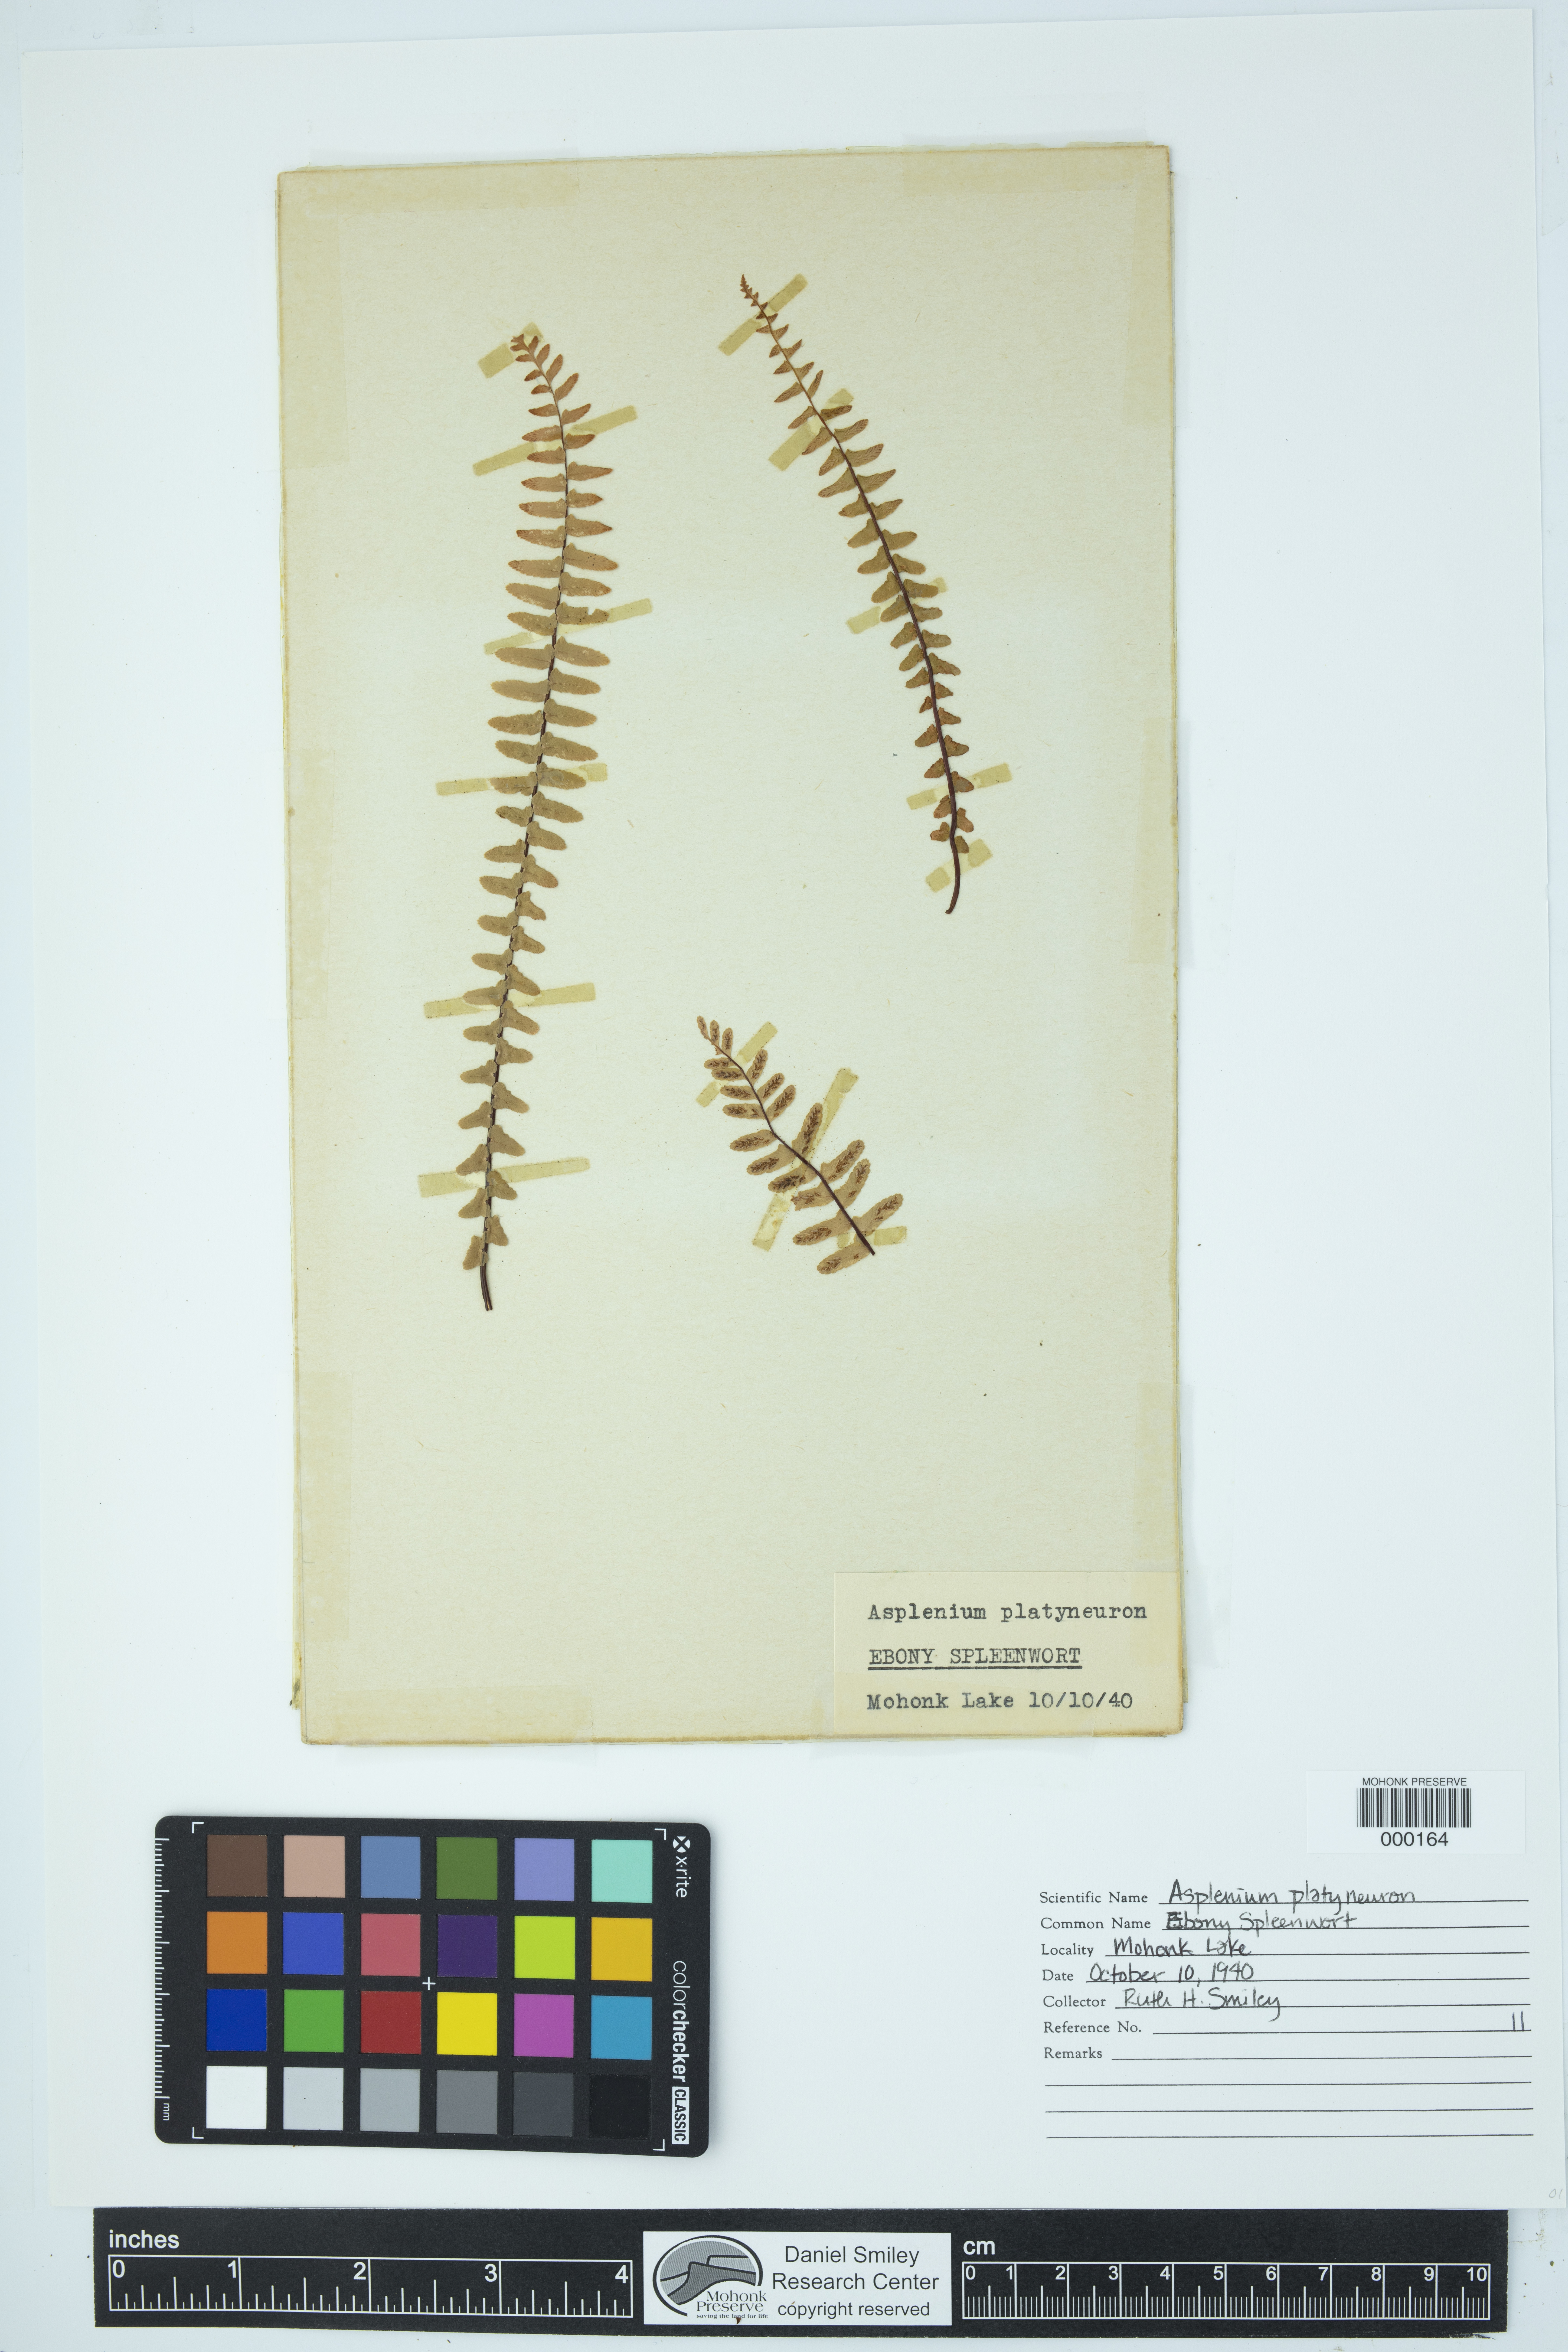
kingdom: Plantae
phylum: Tracheophyta
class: Polypodiopsida
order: Polypodiales
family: Aspleniaceae
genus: Asplenium
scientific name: Asplenium platyneuron
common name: Ebony spleenwort
